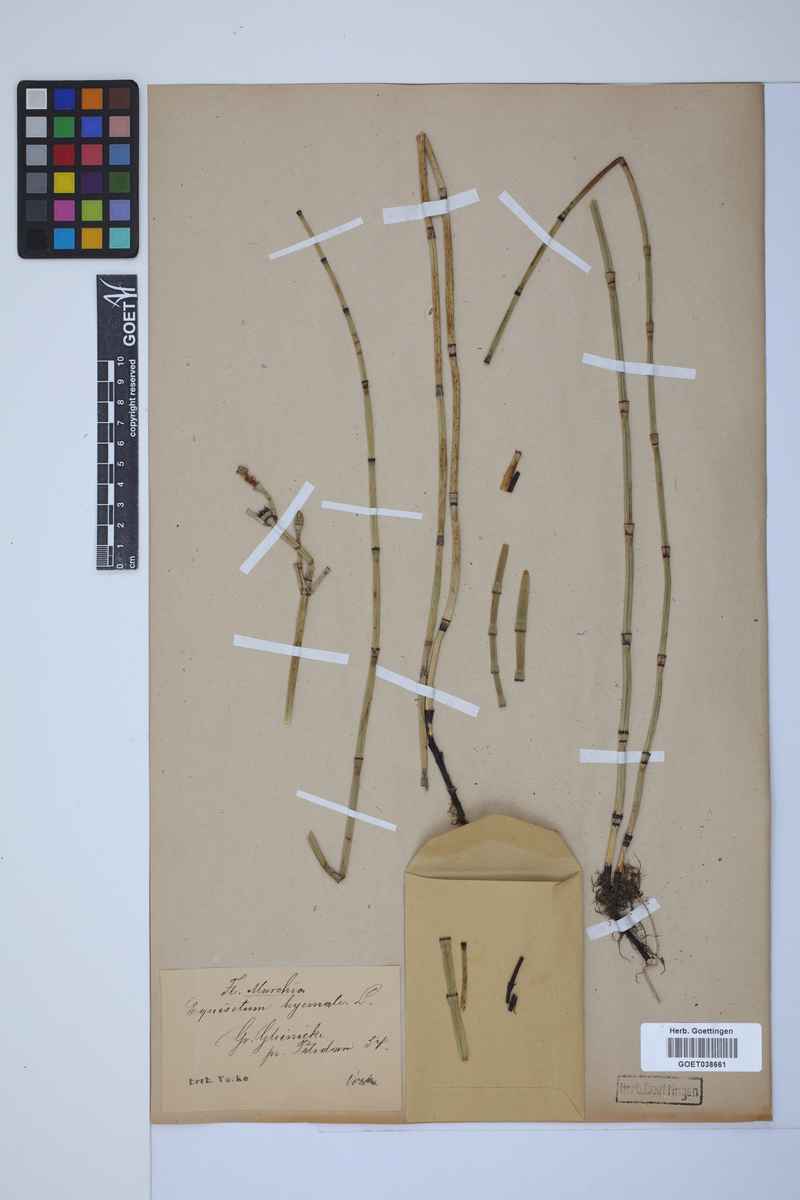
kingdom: Plantae
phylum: Tracheophyta
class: Polypodiopsida
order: Equisetales
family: Equisetaceae
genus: Equisetum
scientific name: Equisetum hyemale
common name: Rough horsetail
